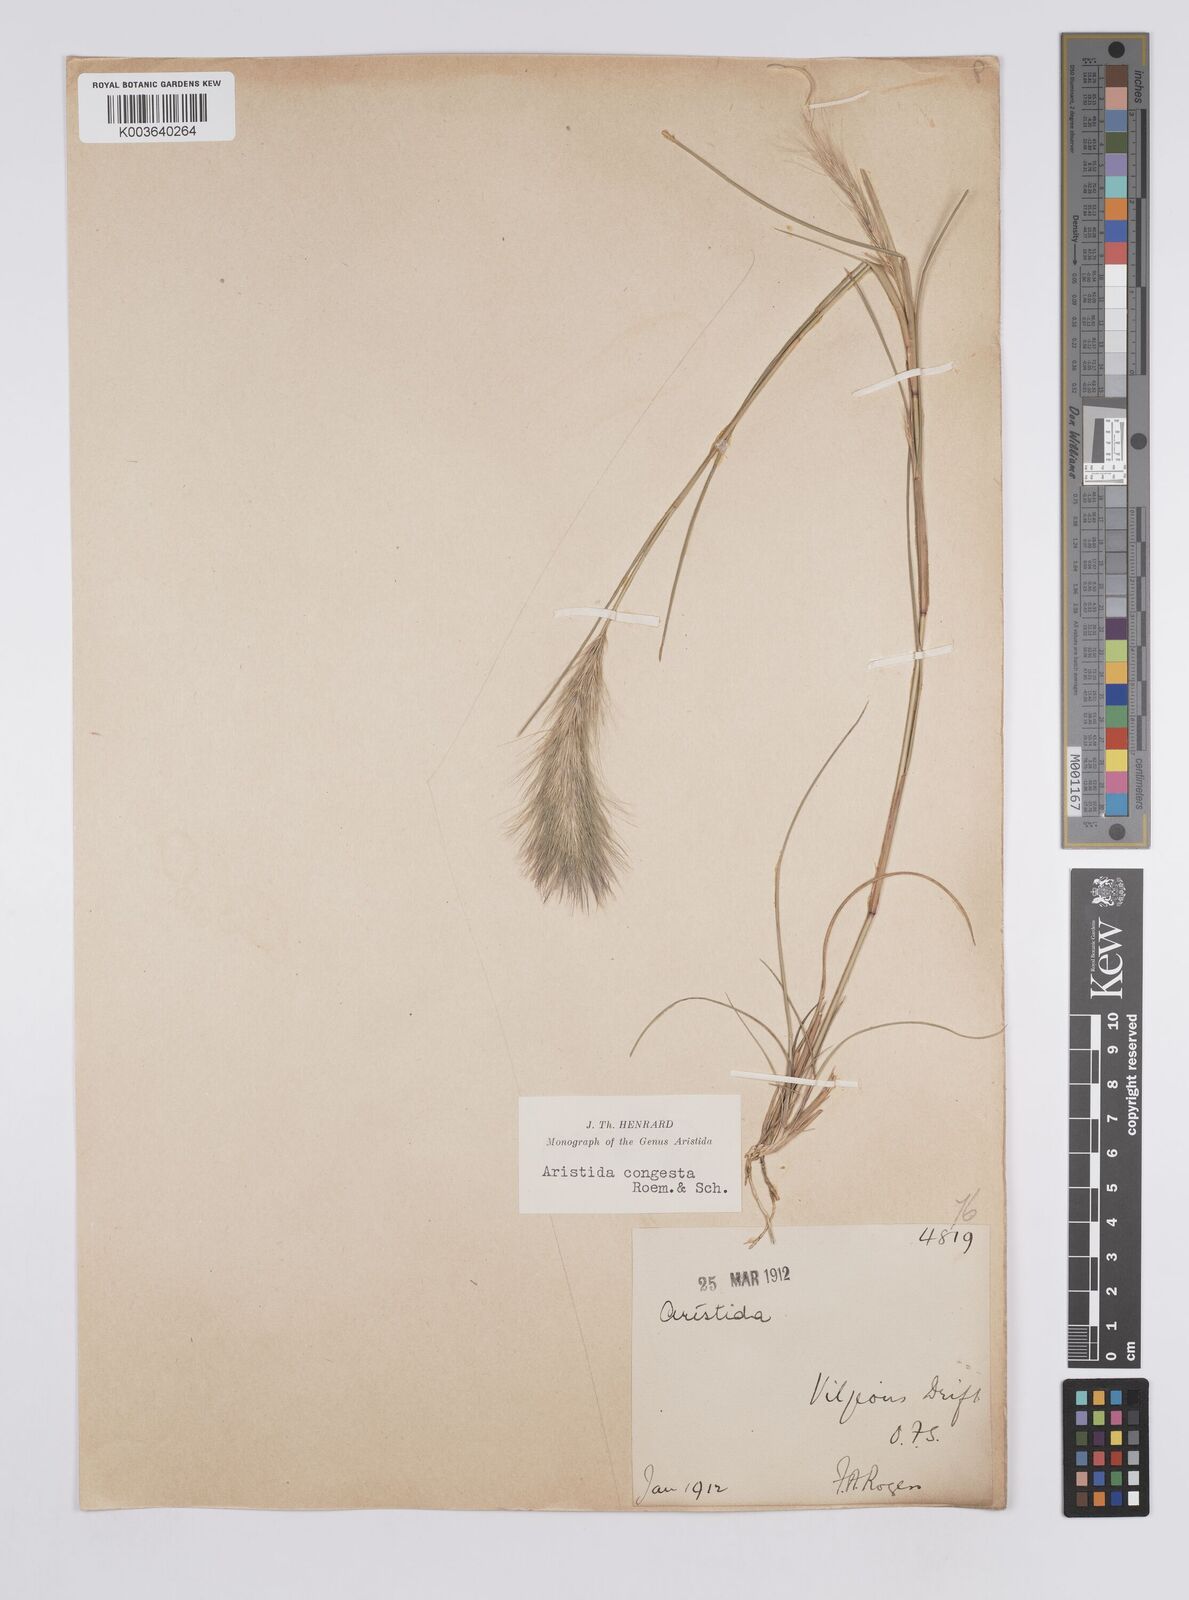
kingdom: Plantae
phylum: Tracheophyta
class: Liliopsida
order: Poales
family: Poaceae
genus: Aristida
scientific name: Aristida congesta
